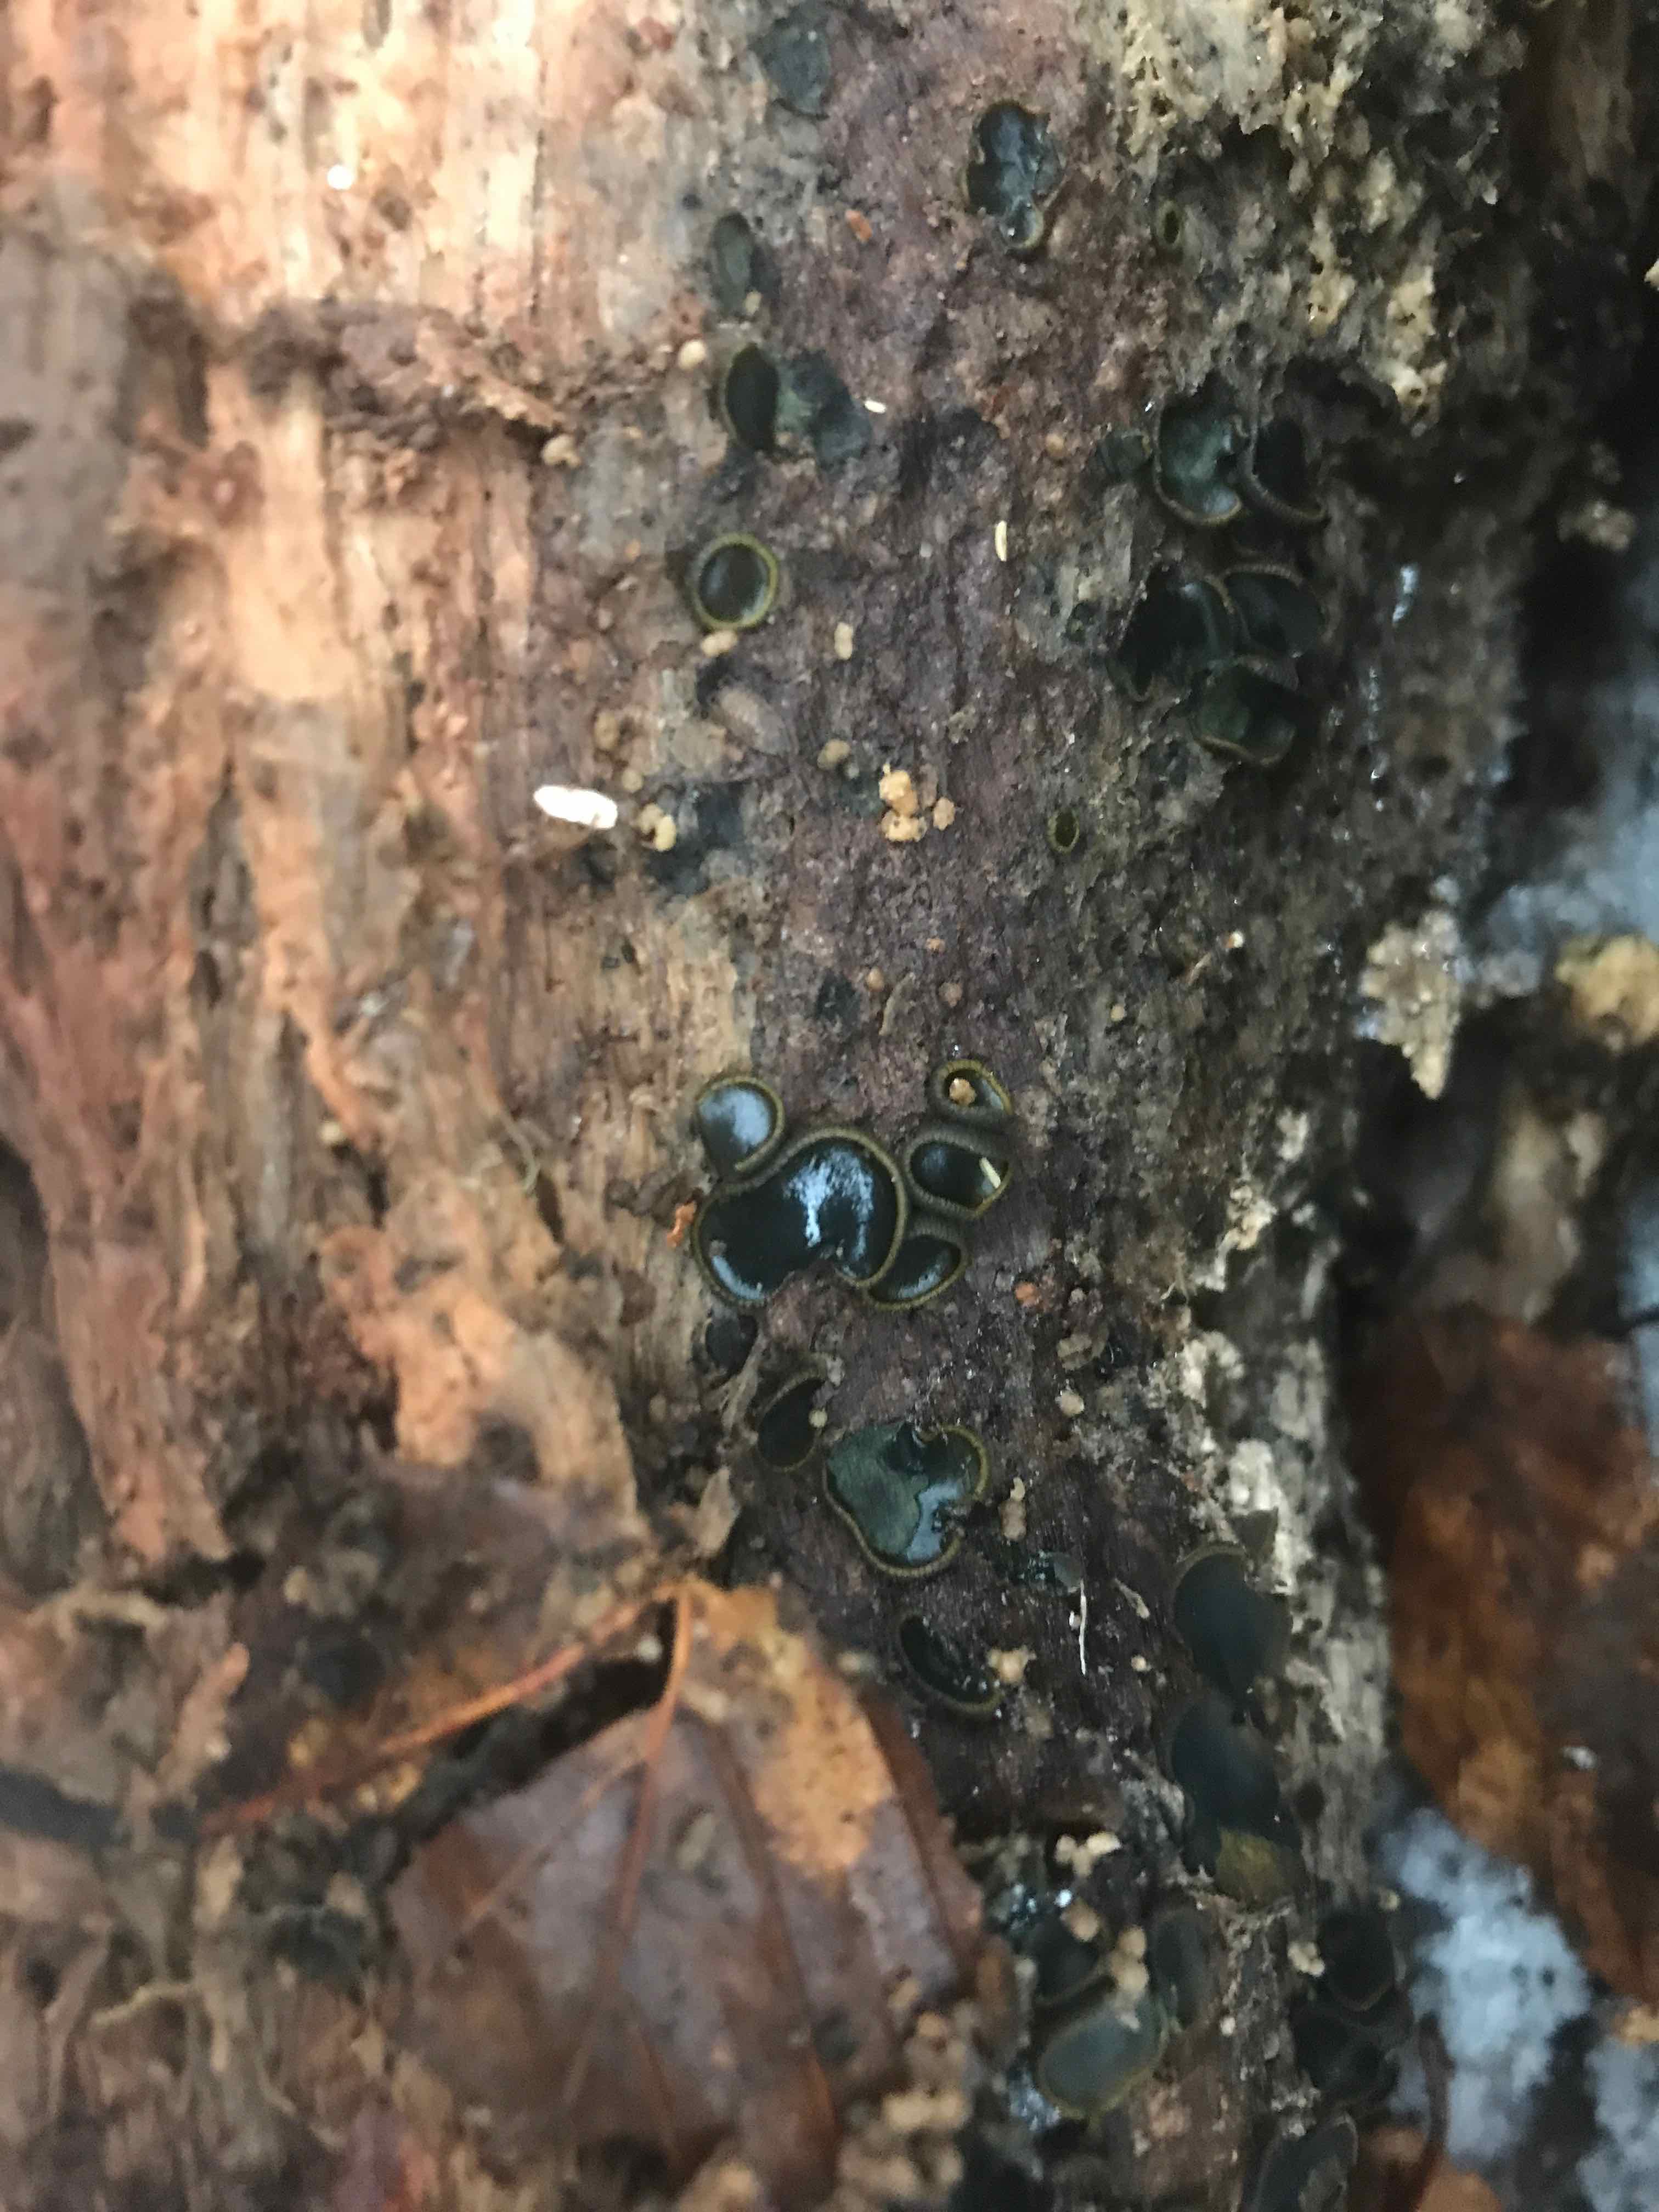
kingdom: Fungi
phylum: Ascomycota
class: Dothideomycetes
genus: Catinella
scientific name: Catinella olivacea
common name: olivenskive
